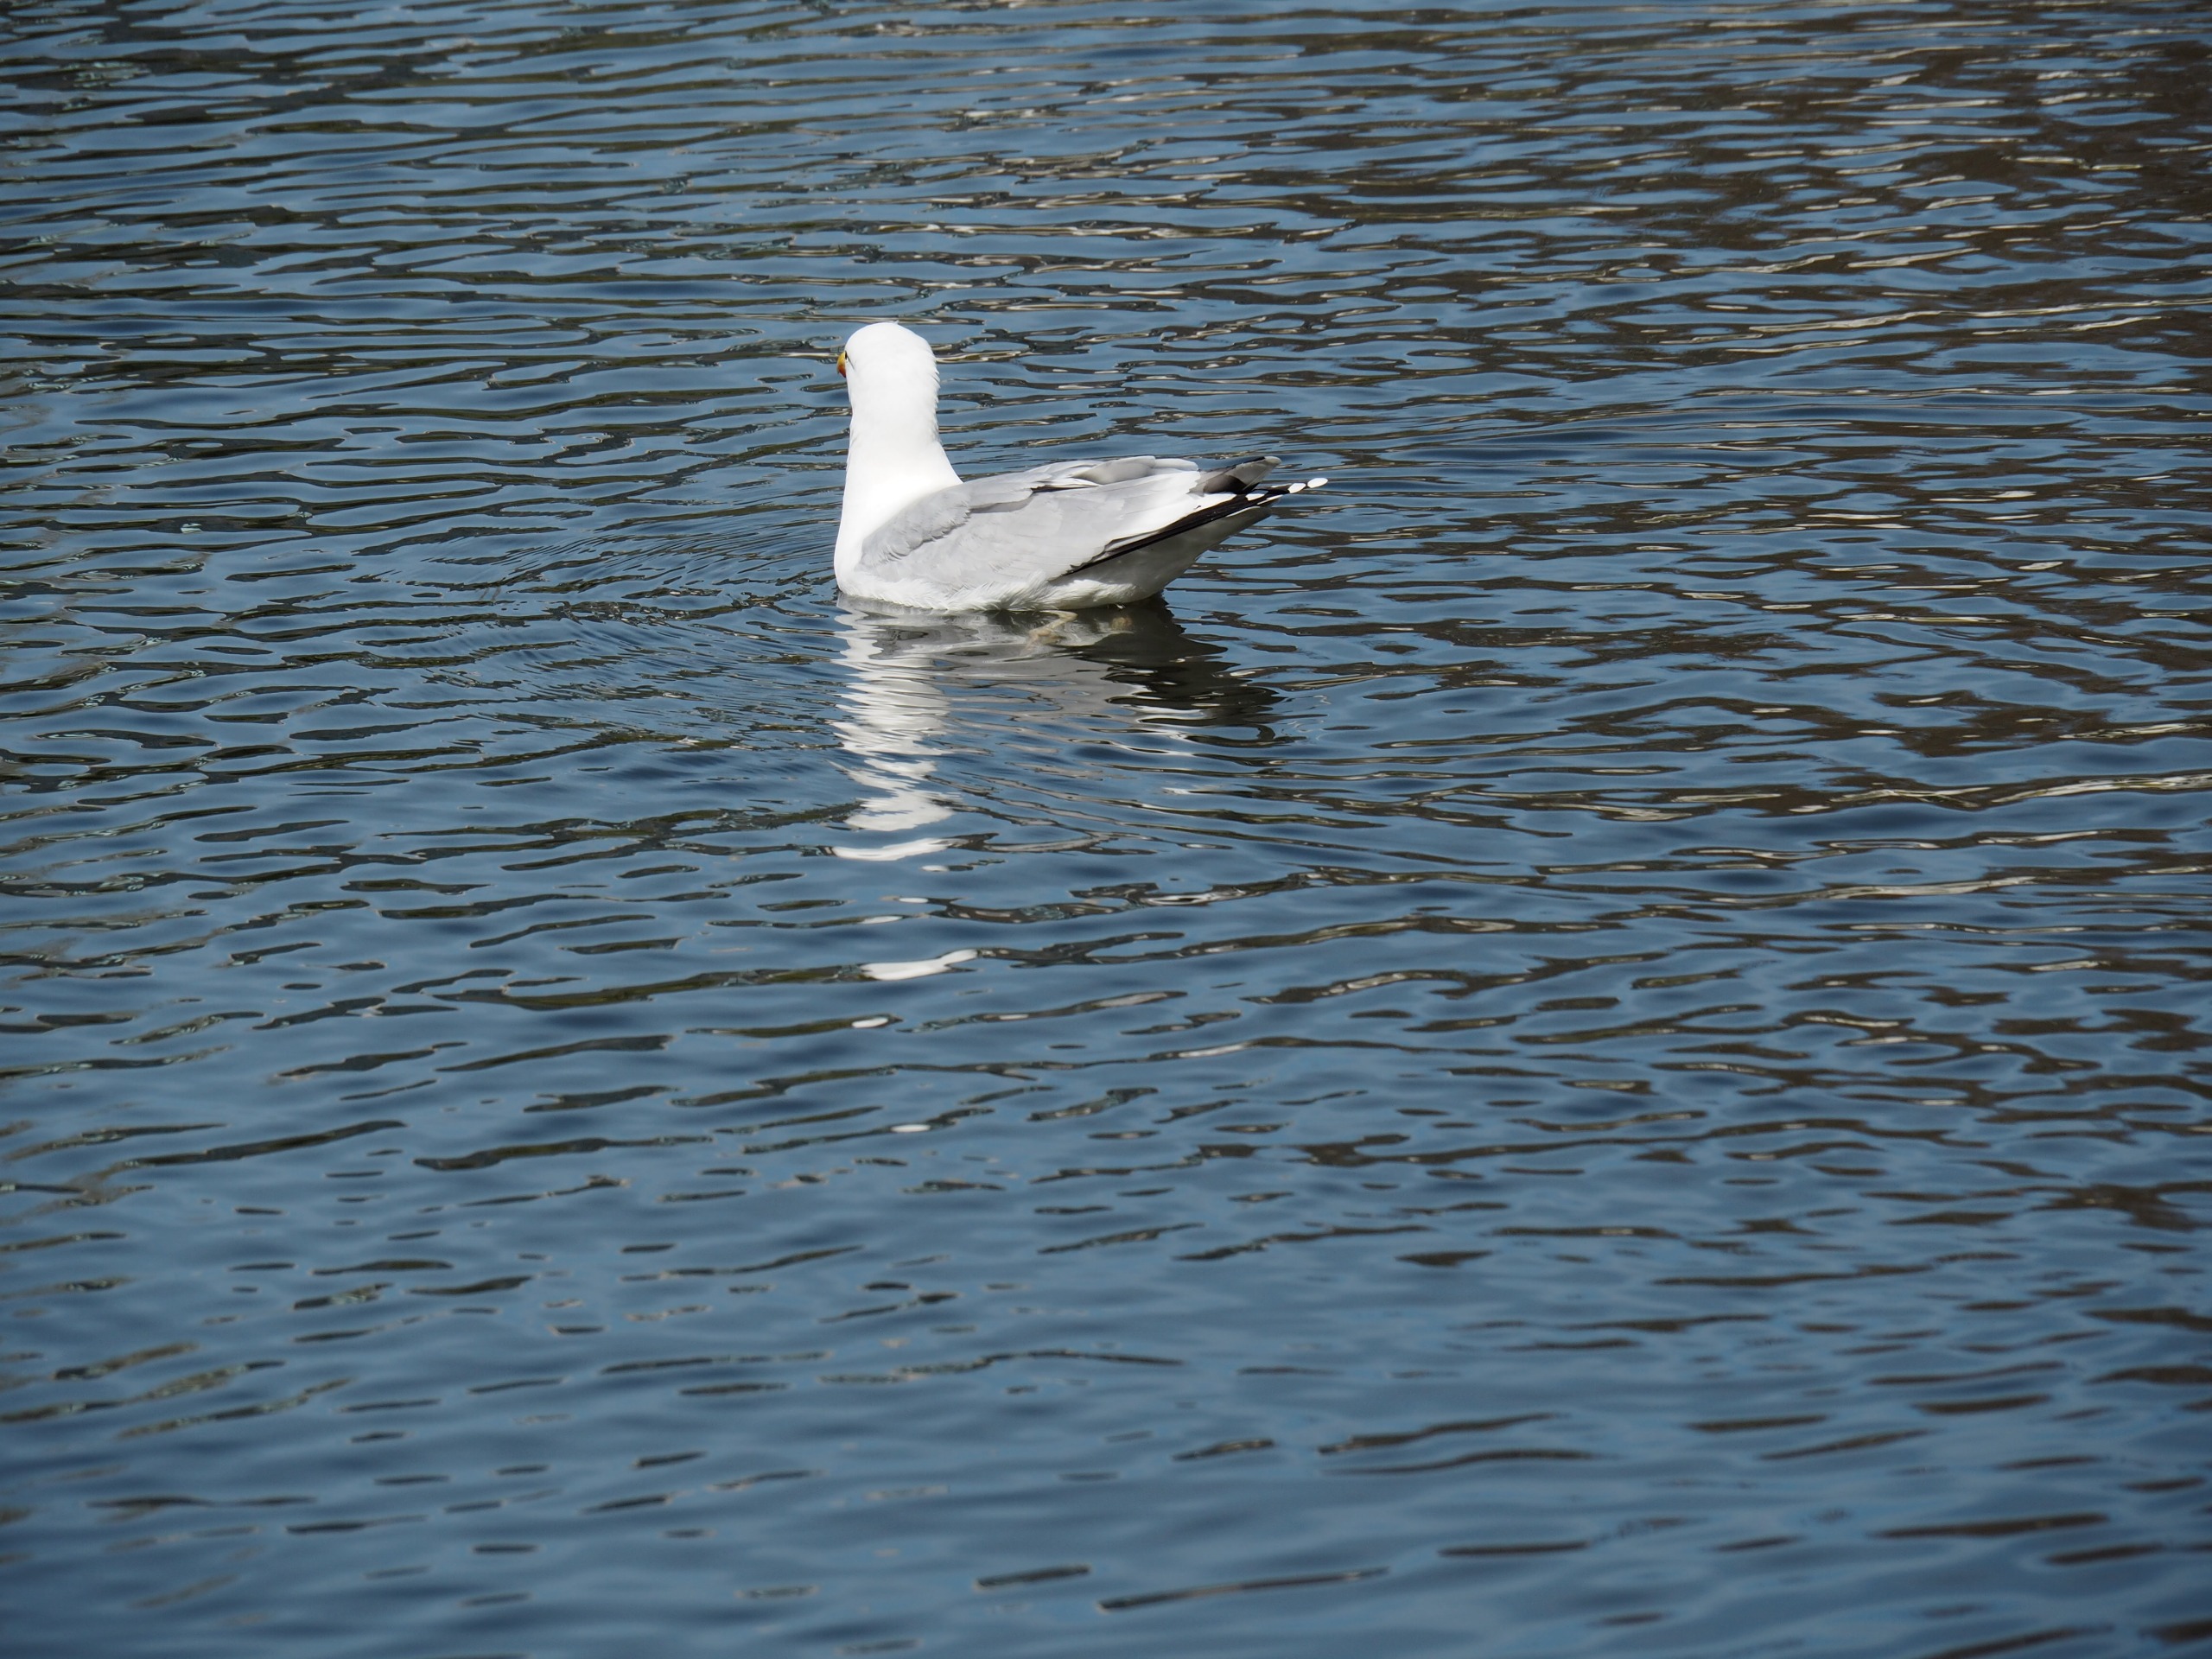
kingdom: Animalia
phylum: Chordata
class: Aves
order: Charadriiformes
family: Laridae
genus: Larus
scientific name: Larus argentatus
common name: Sølvmåge
